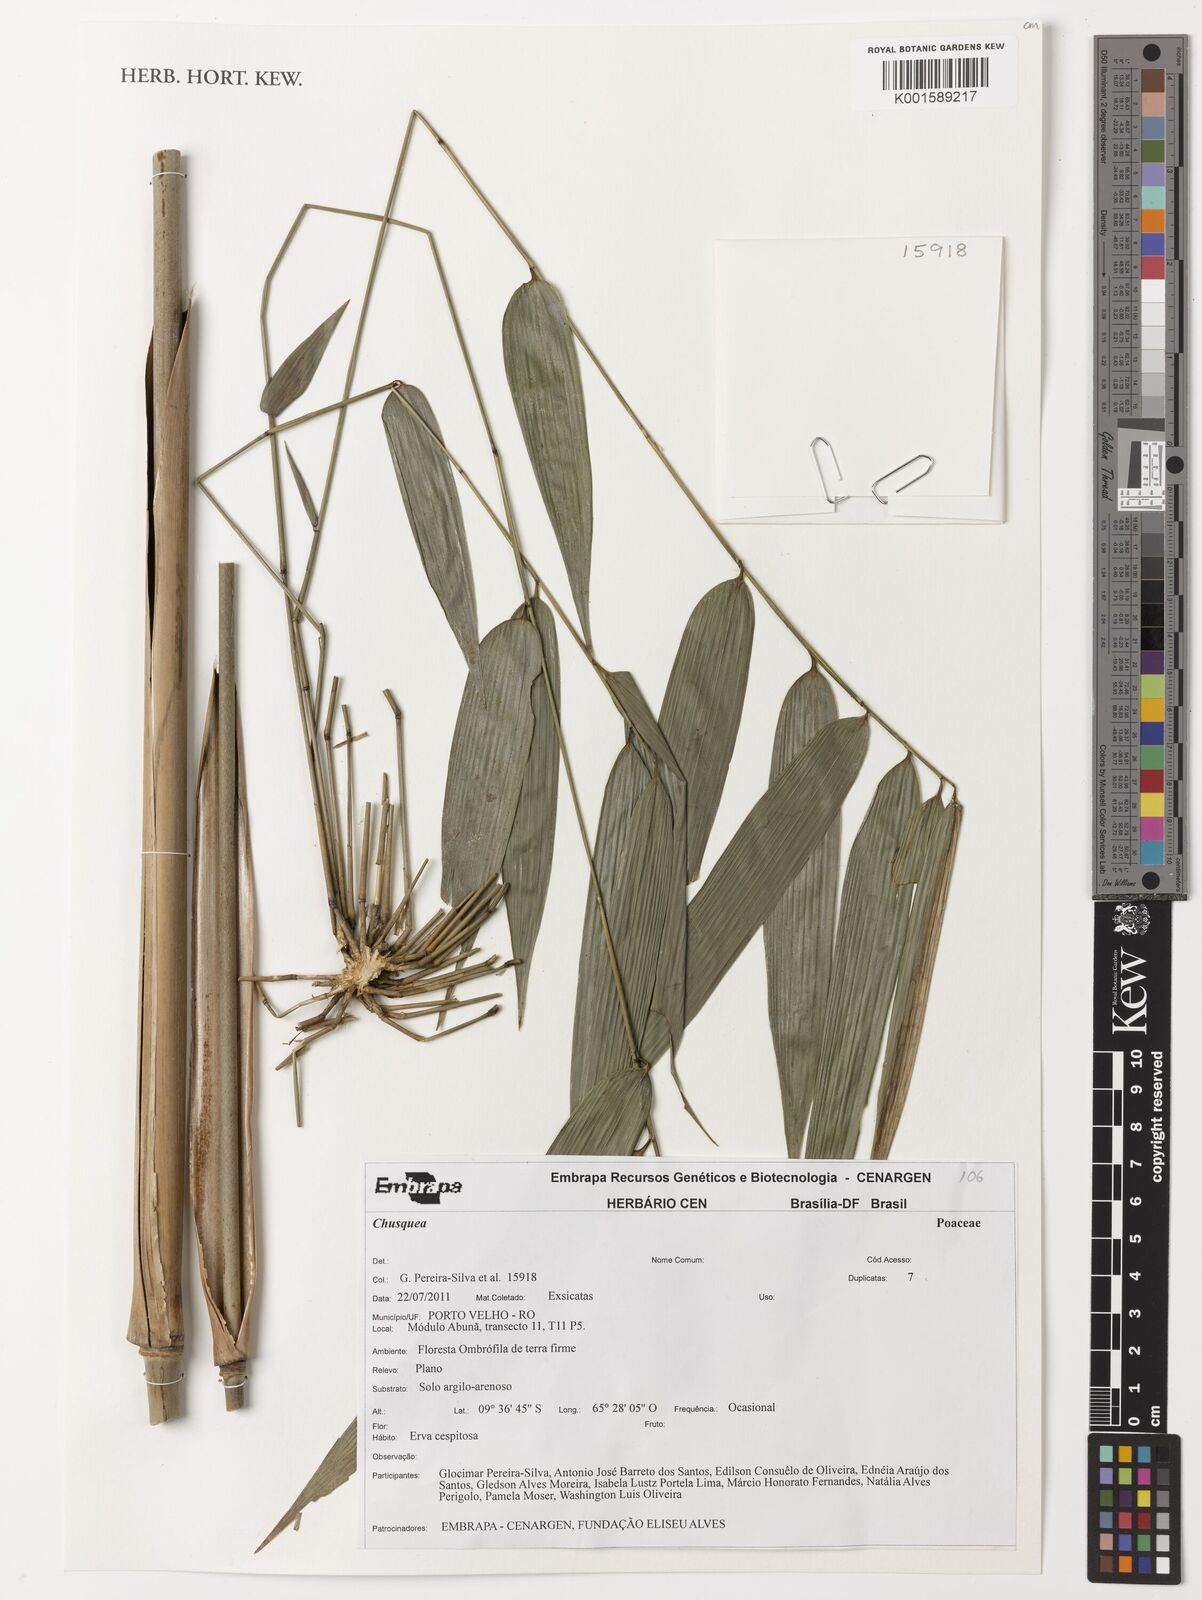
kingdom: Plantae
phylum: Tracheophyta
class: Liliopsida
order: Poales
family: Poaceae
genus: Chusquea
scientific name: Chusquea
